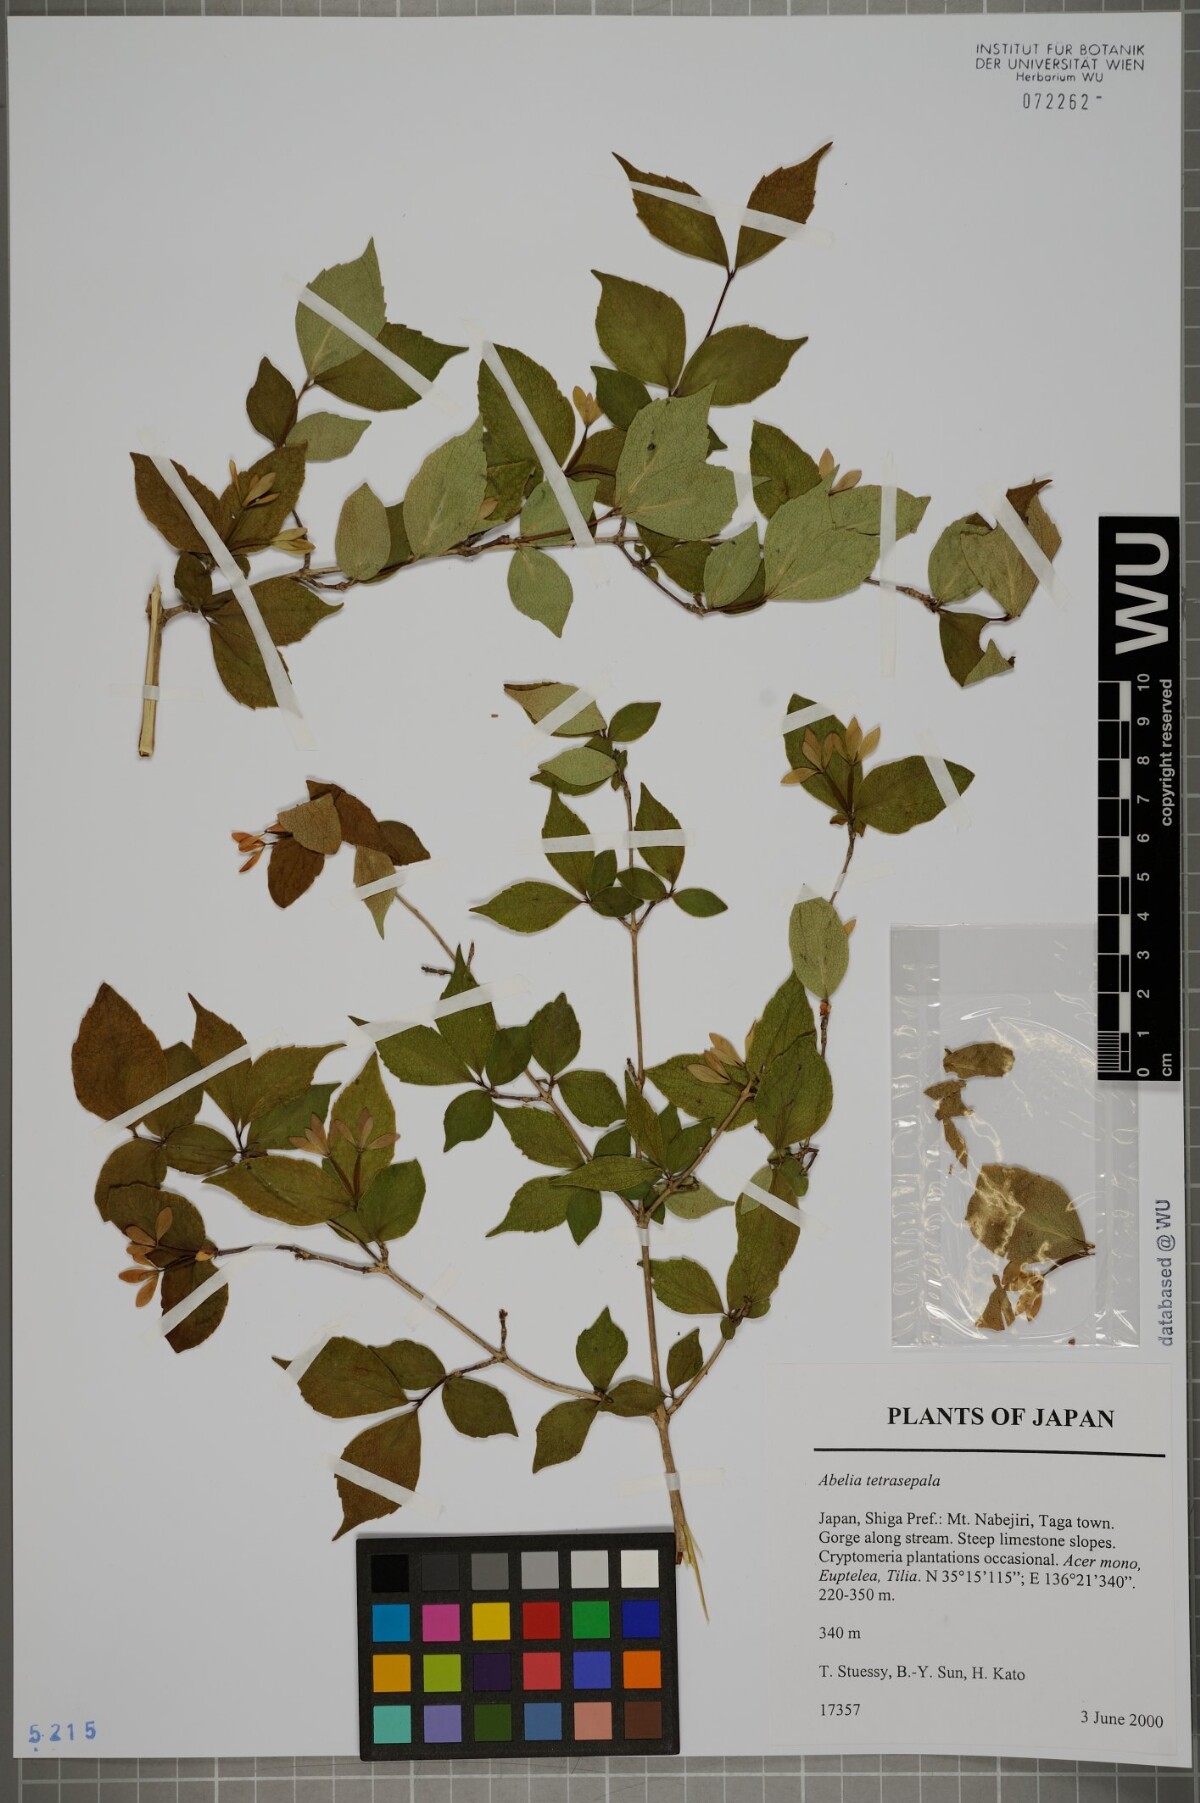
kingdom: Plantae
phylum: Tracheophyta
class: Magnoliopsida
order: Dipsacales
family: Caprifoliaceae
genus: Diabelia
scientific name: Diabelia ionostachya
